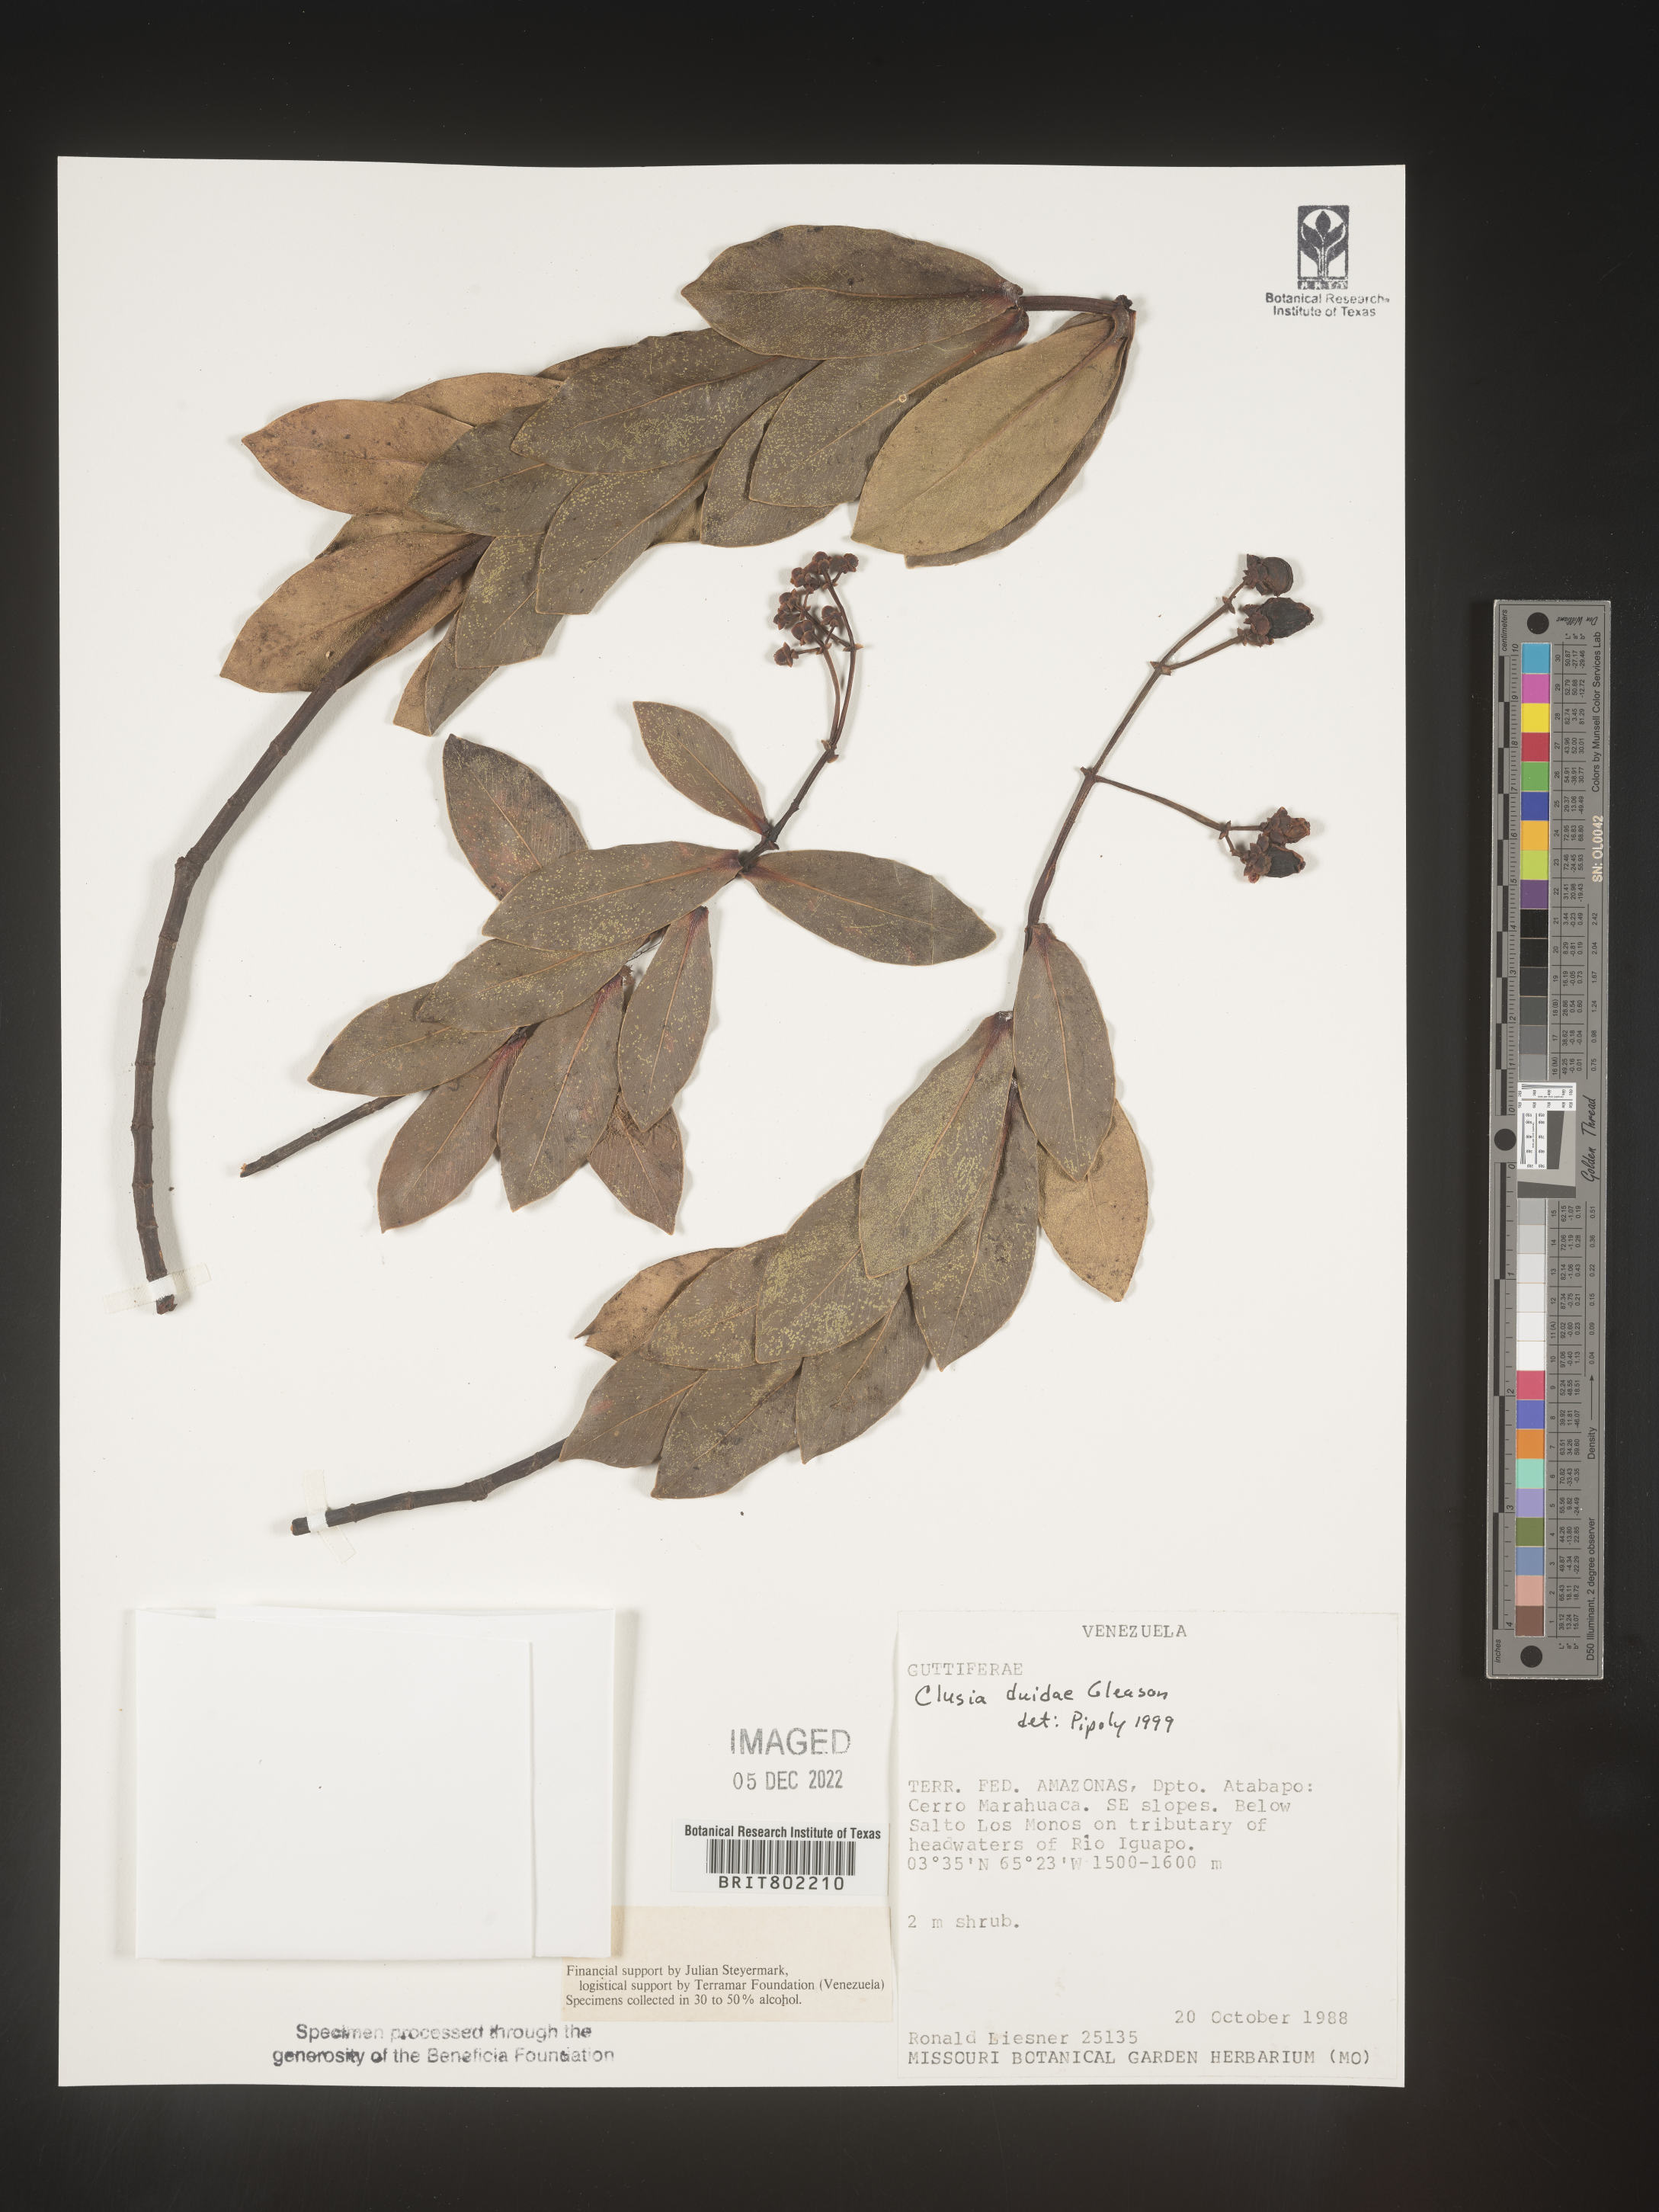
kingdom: Plantae
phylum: Tracheophyta
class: Magnoliopsida
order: Malpighiales
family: Clusiaceae
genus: Clusia
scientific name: Clusia
